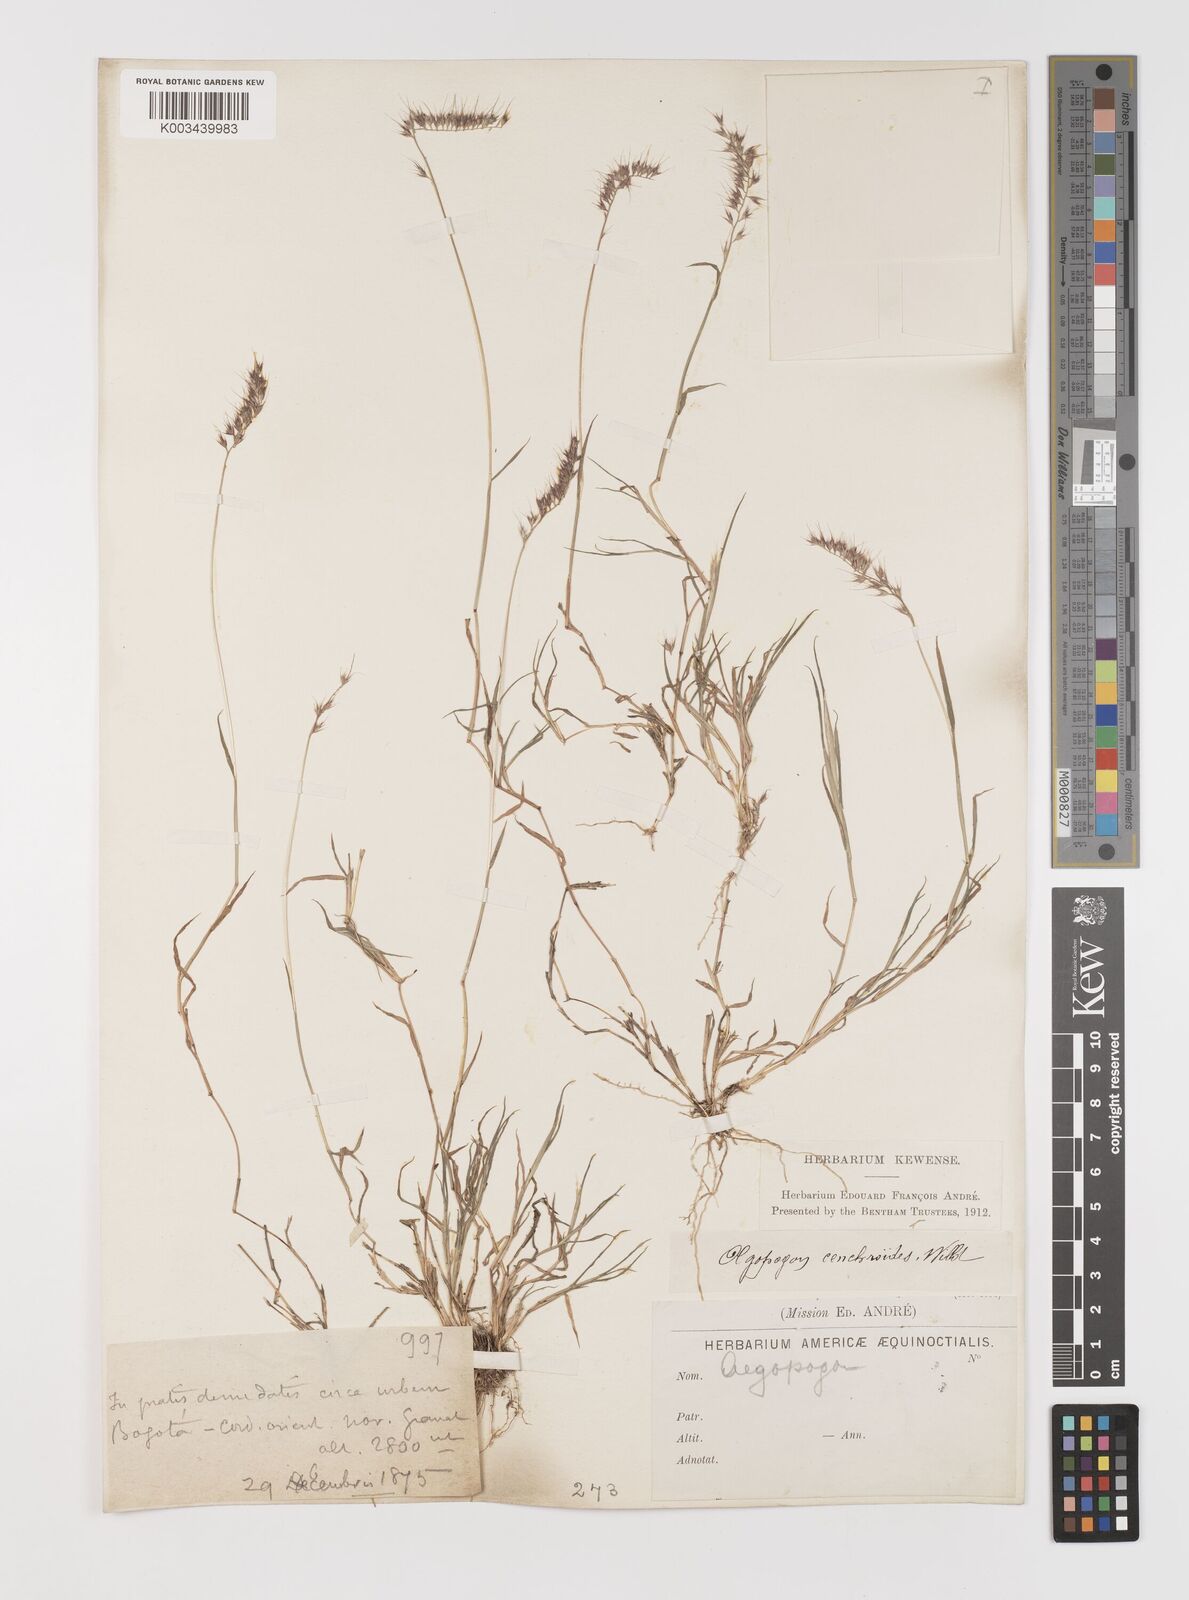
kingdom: Plantae
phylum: Tracheophyta
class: Liliopsida
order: Poales
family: Poaceae
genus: Muhlenbergia
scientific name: Muhlenbergia cenchroides
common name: Relaxgrass
